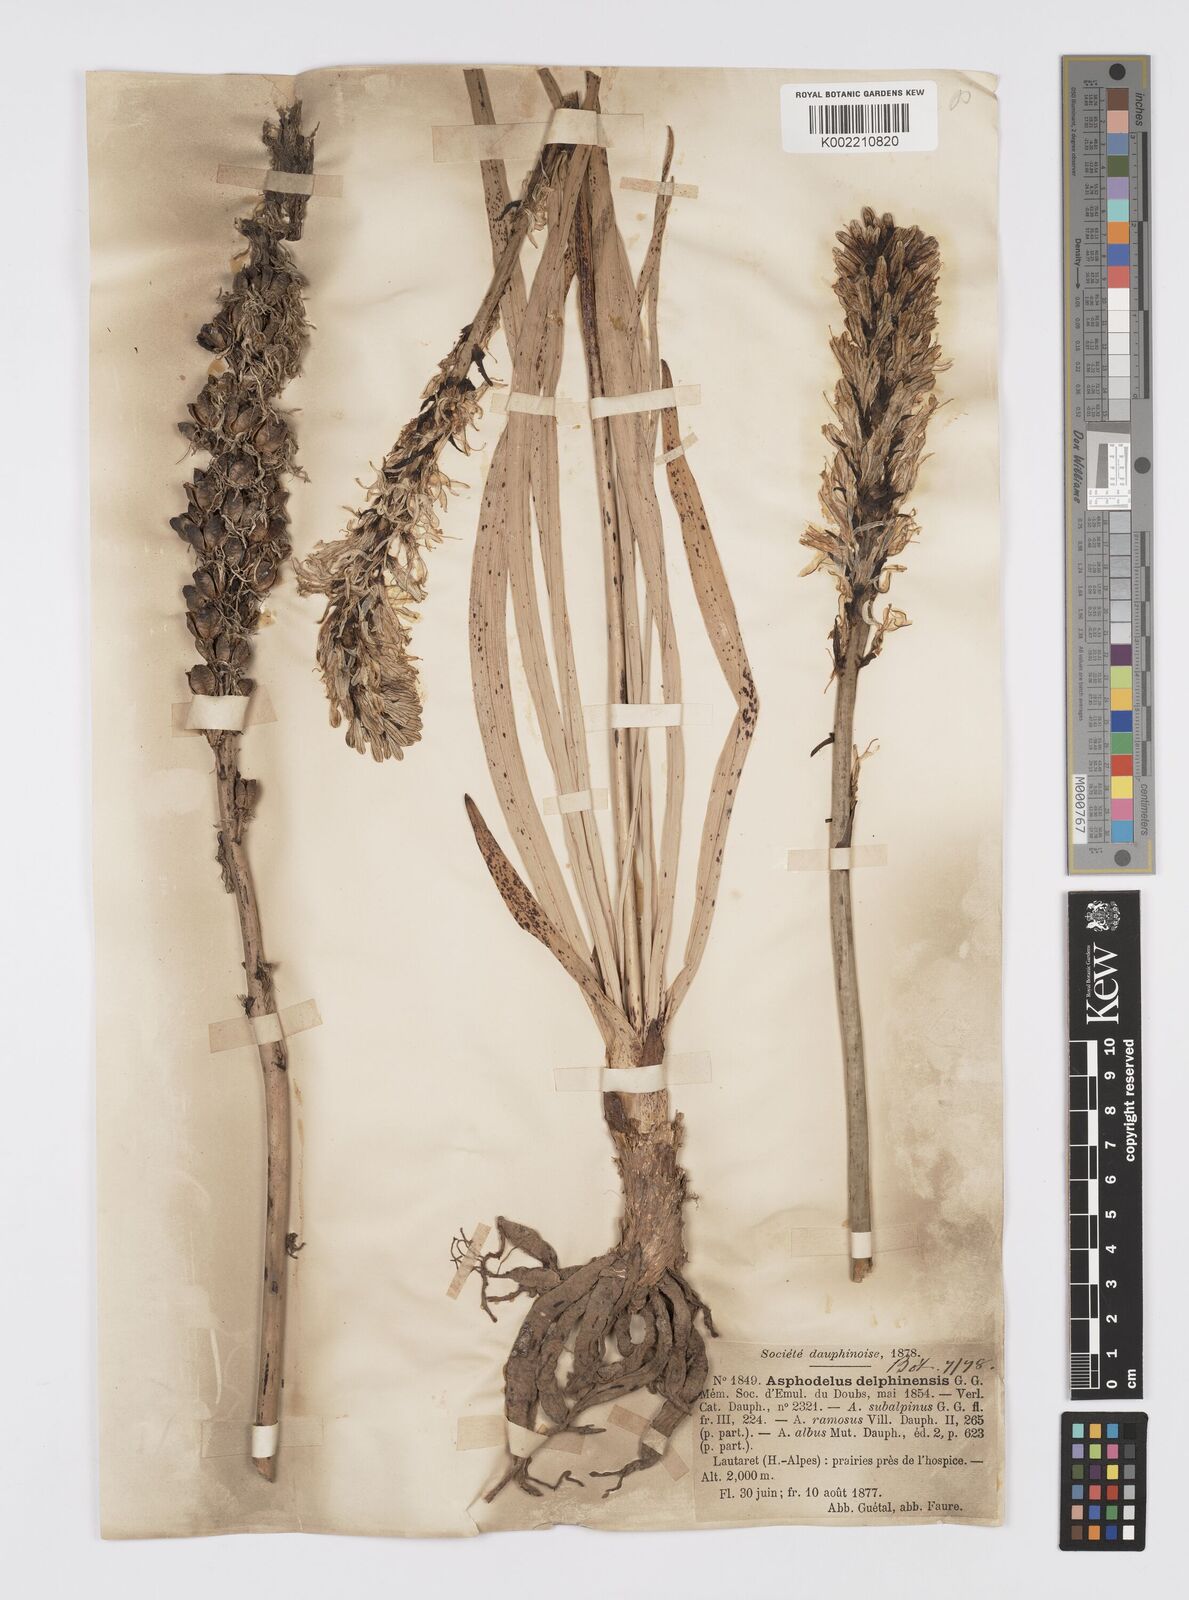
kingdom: Plantae
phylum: Tracheophyta
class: Liliopsida
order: Asparagales
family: Asphodelaceae
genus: Asphodelus
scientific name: Asphodelus albus
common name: White asphodel
